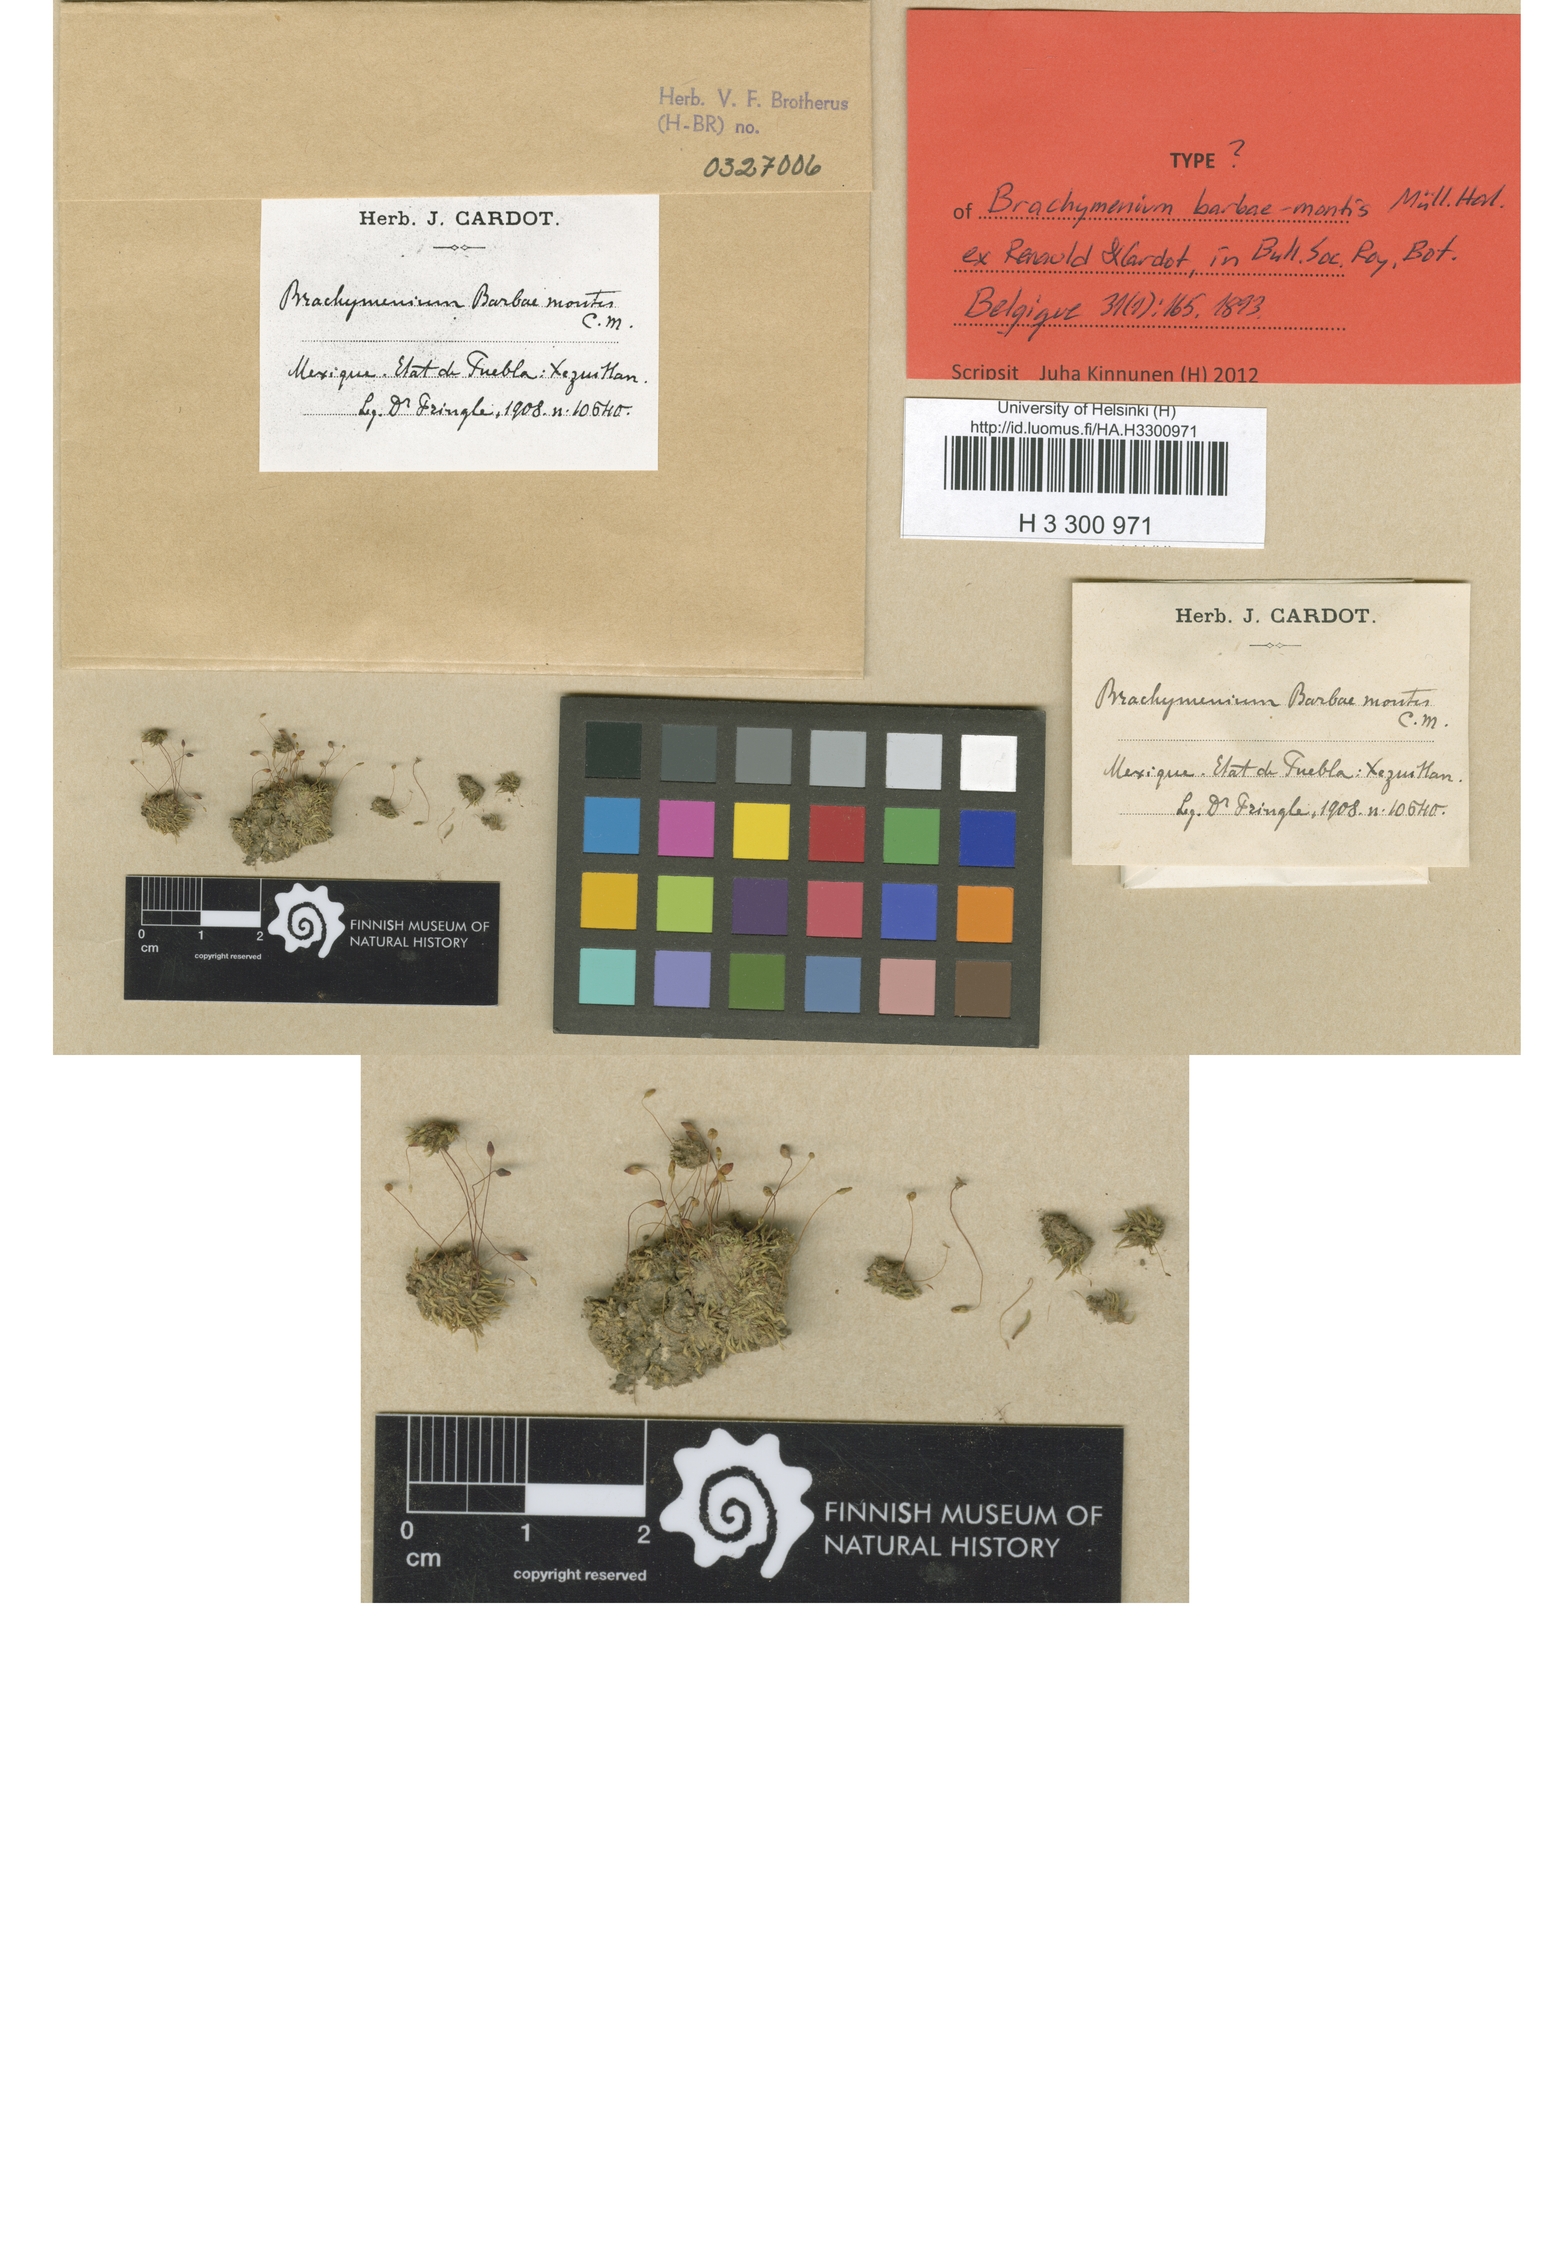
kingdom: Plantae
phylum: Bryophyta
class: Bryopsida
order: Bryales
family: Bryaceae
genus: Gemmabryum
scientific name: Gemmabryum exile
